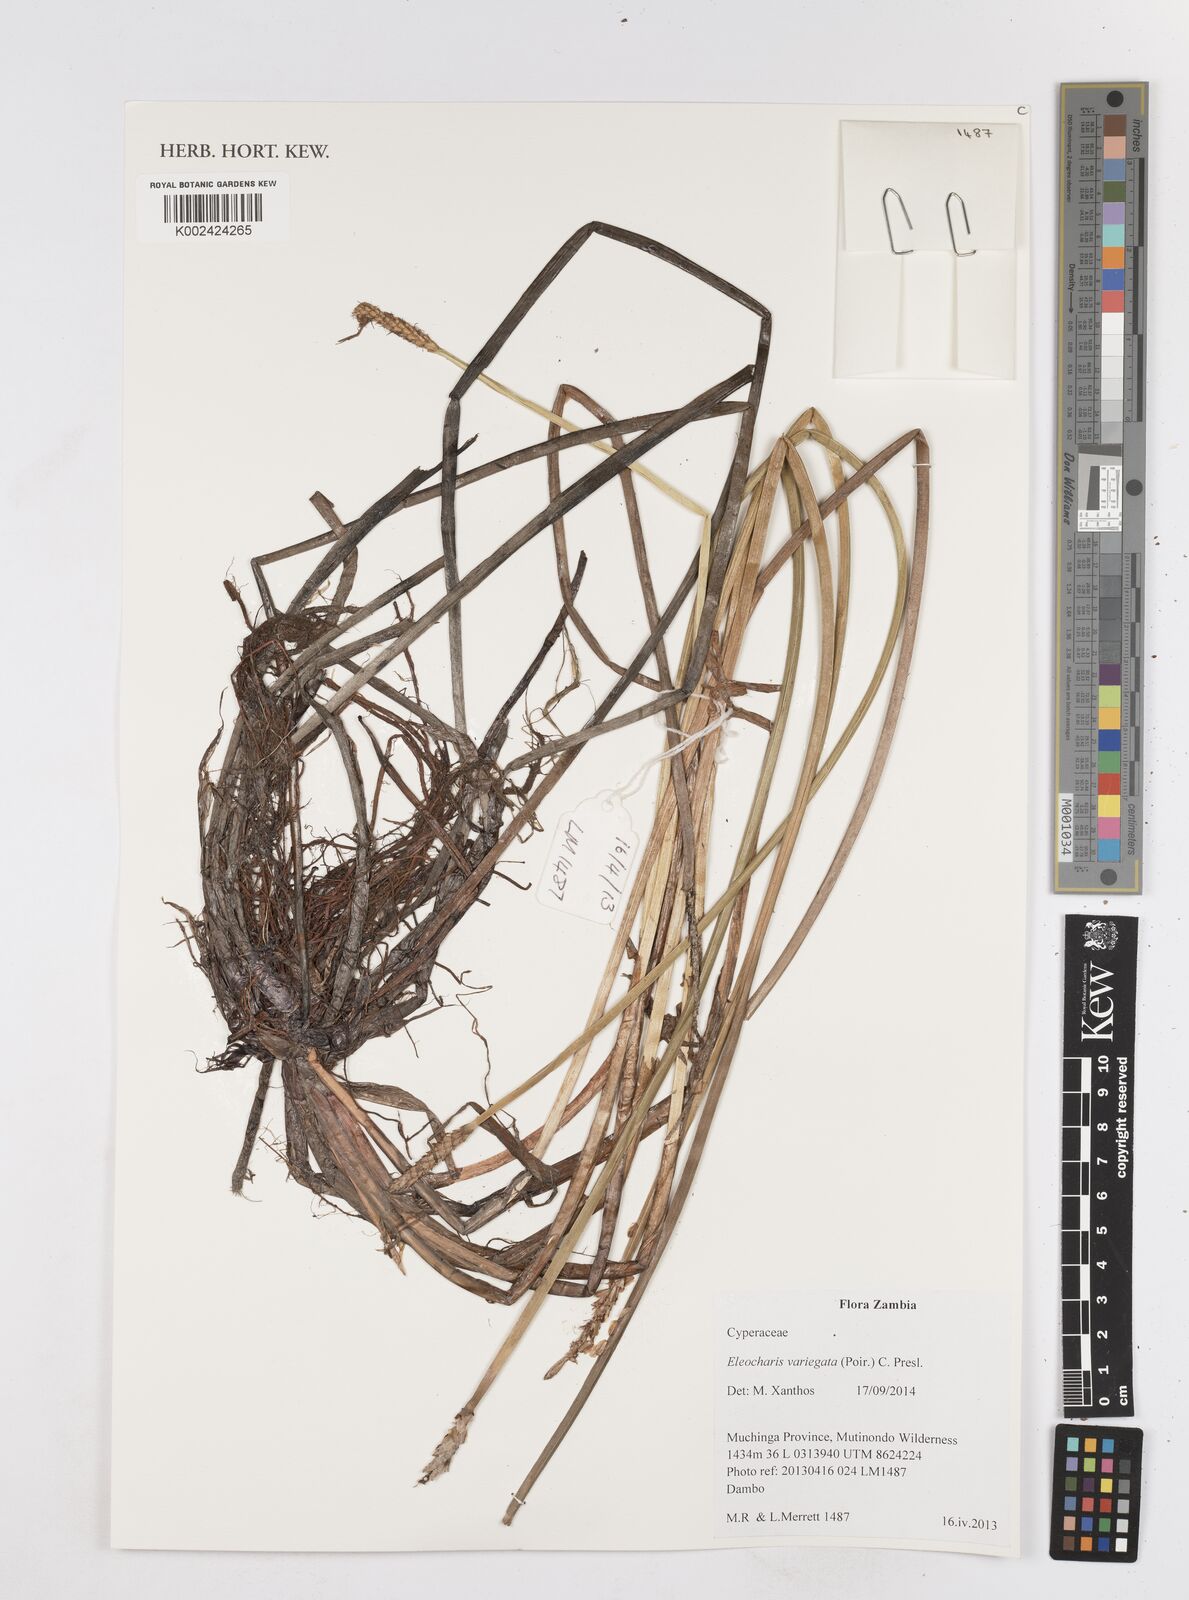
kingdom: Plantae
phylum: Tracheophyta
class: Liliopsida
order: Poales
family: Cyperaceae
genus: Eleocharis
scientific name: Eleocharis variegata
